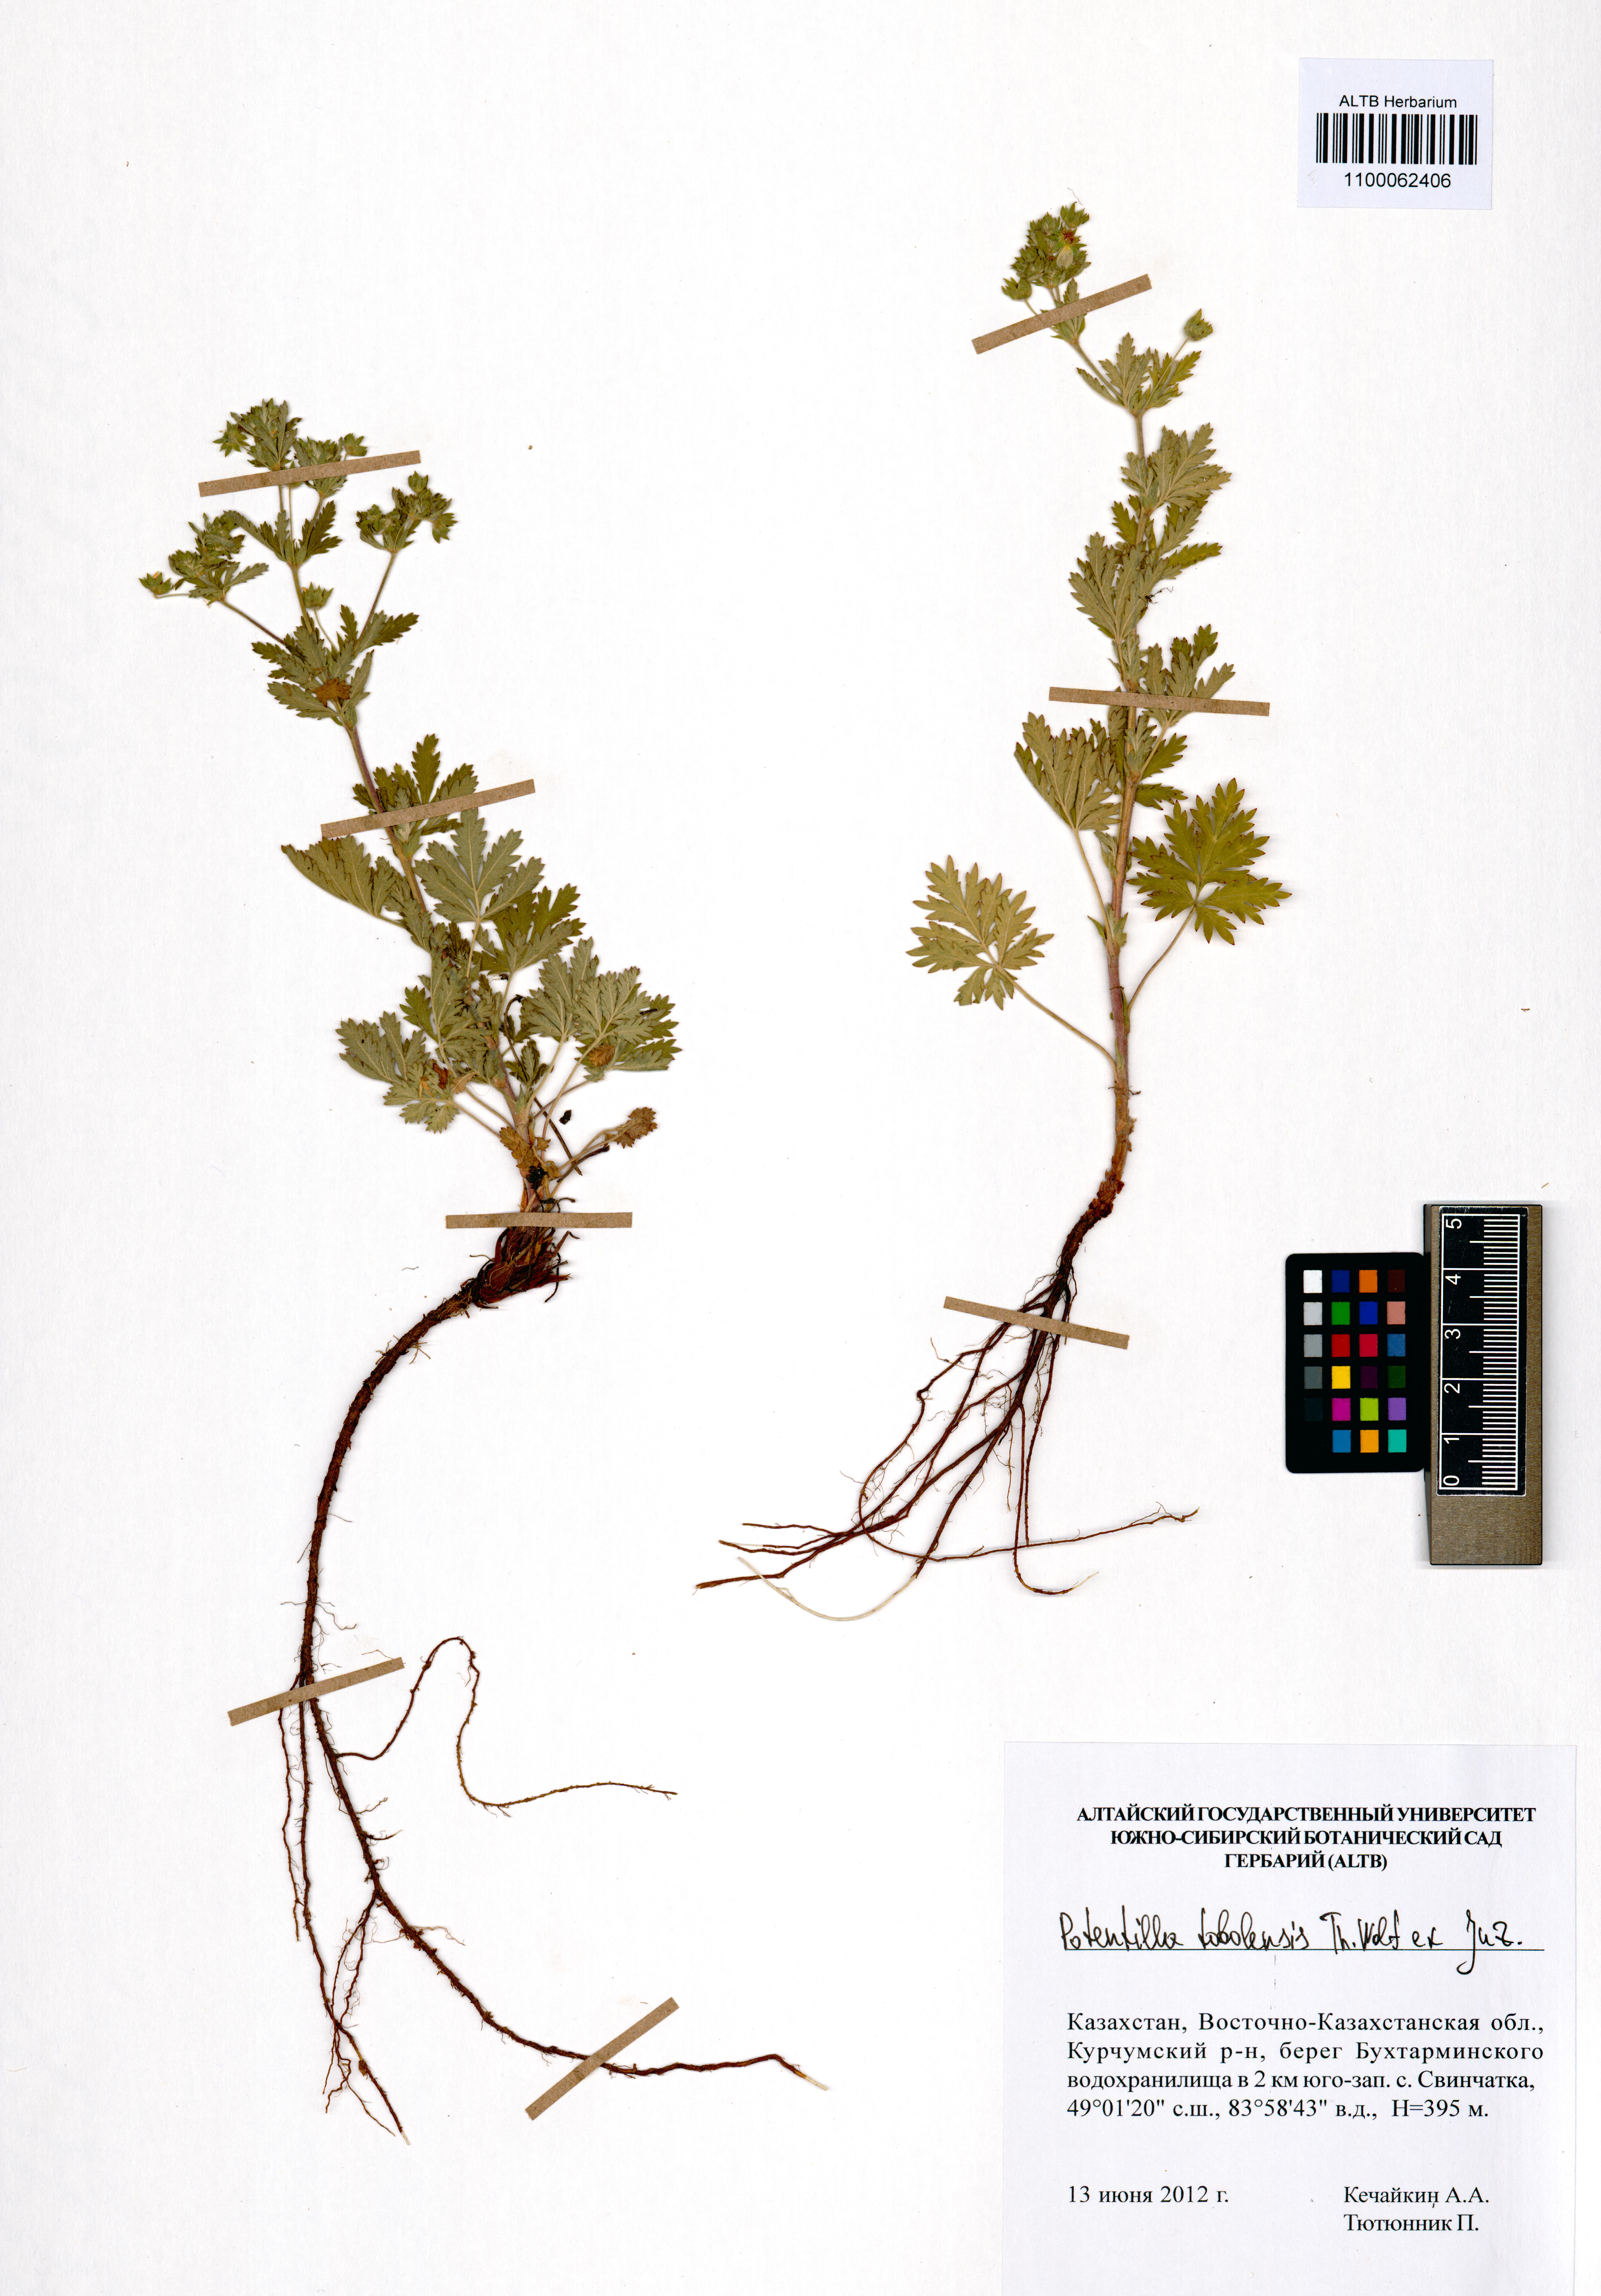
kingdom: Plantae
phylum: Tracheophyta
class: Magnoliopsida
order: Rosales
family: Rosaceae
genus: Potentilla
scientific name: Potentilla tobolensis
